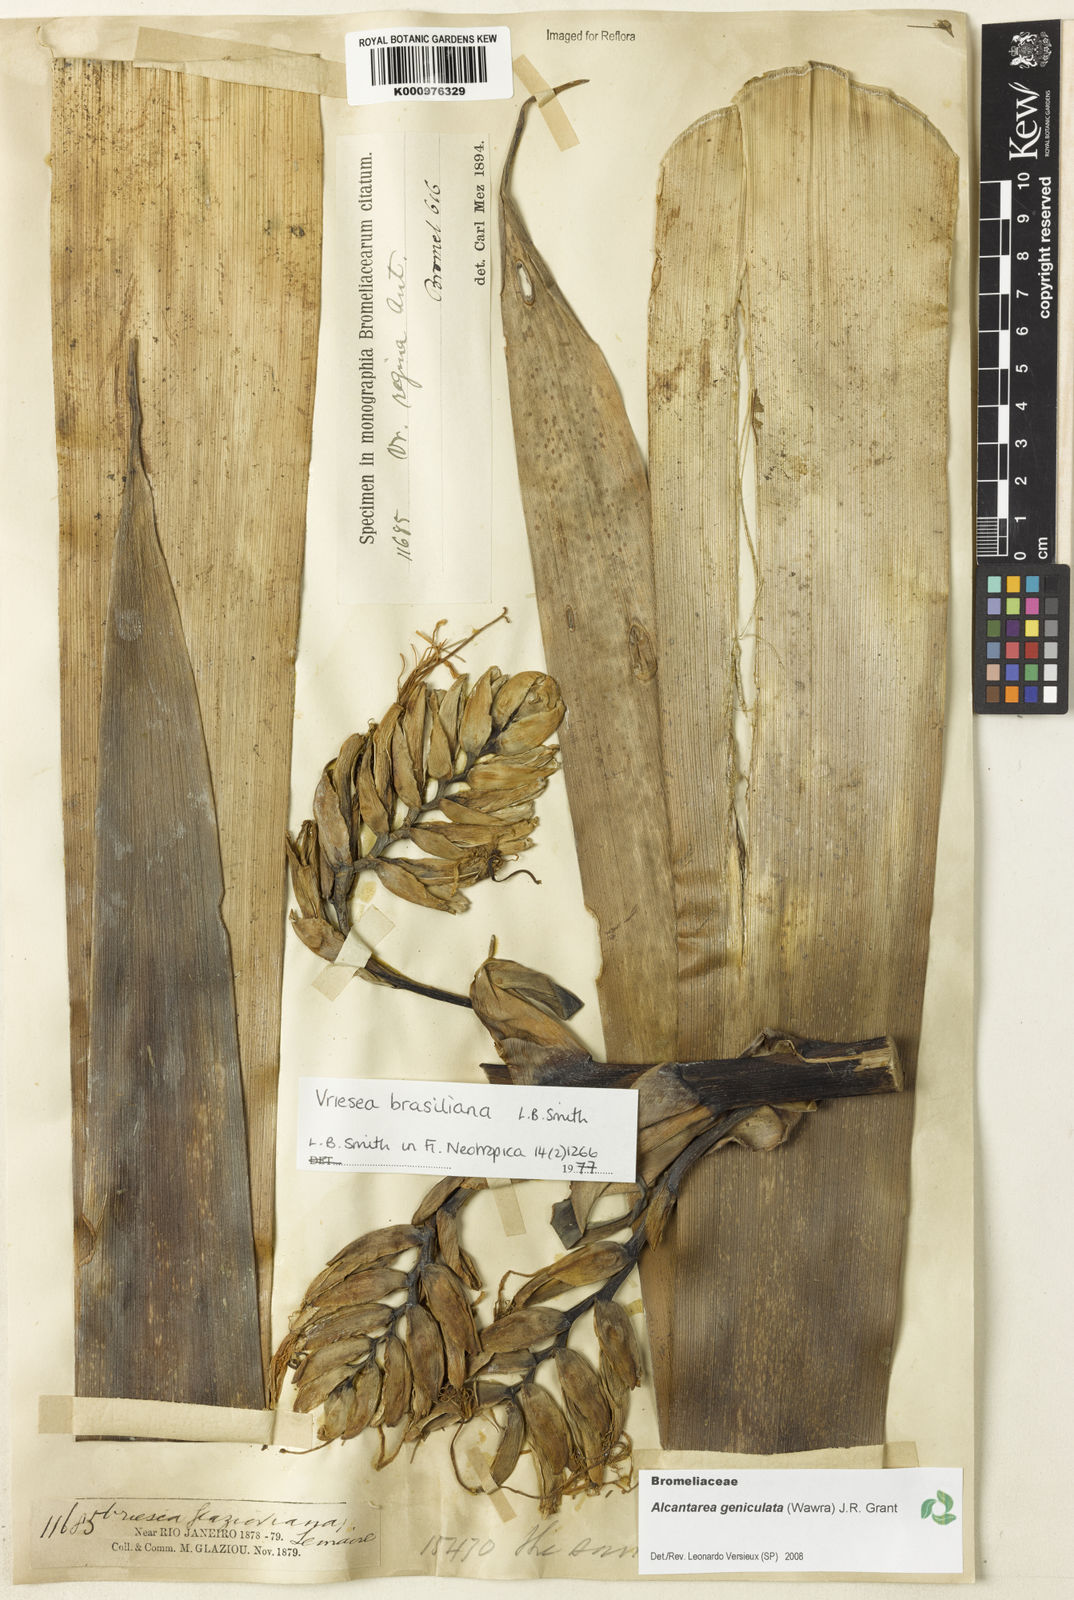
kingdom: Plantae
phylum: Tracheophyta
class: Liliopsida
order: Poales
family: Bromeliaceae
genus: Alcantarea
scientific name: Alcantarea geniculata
